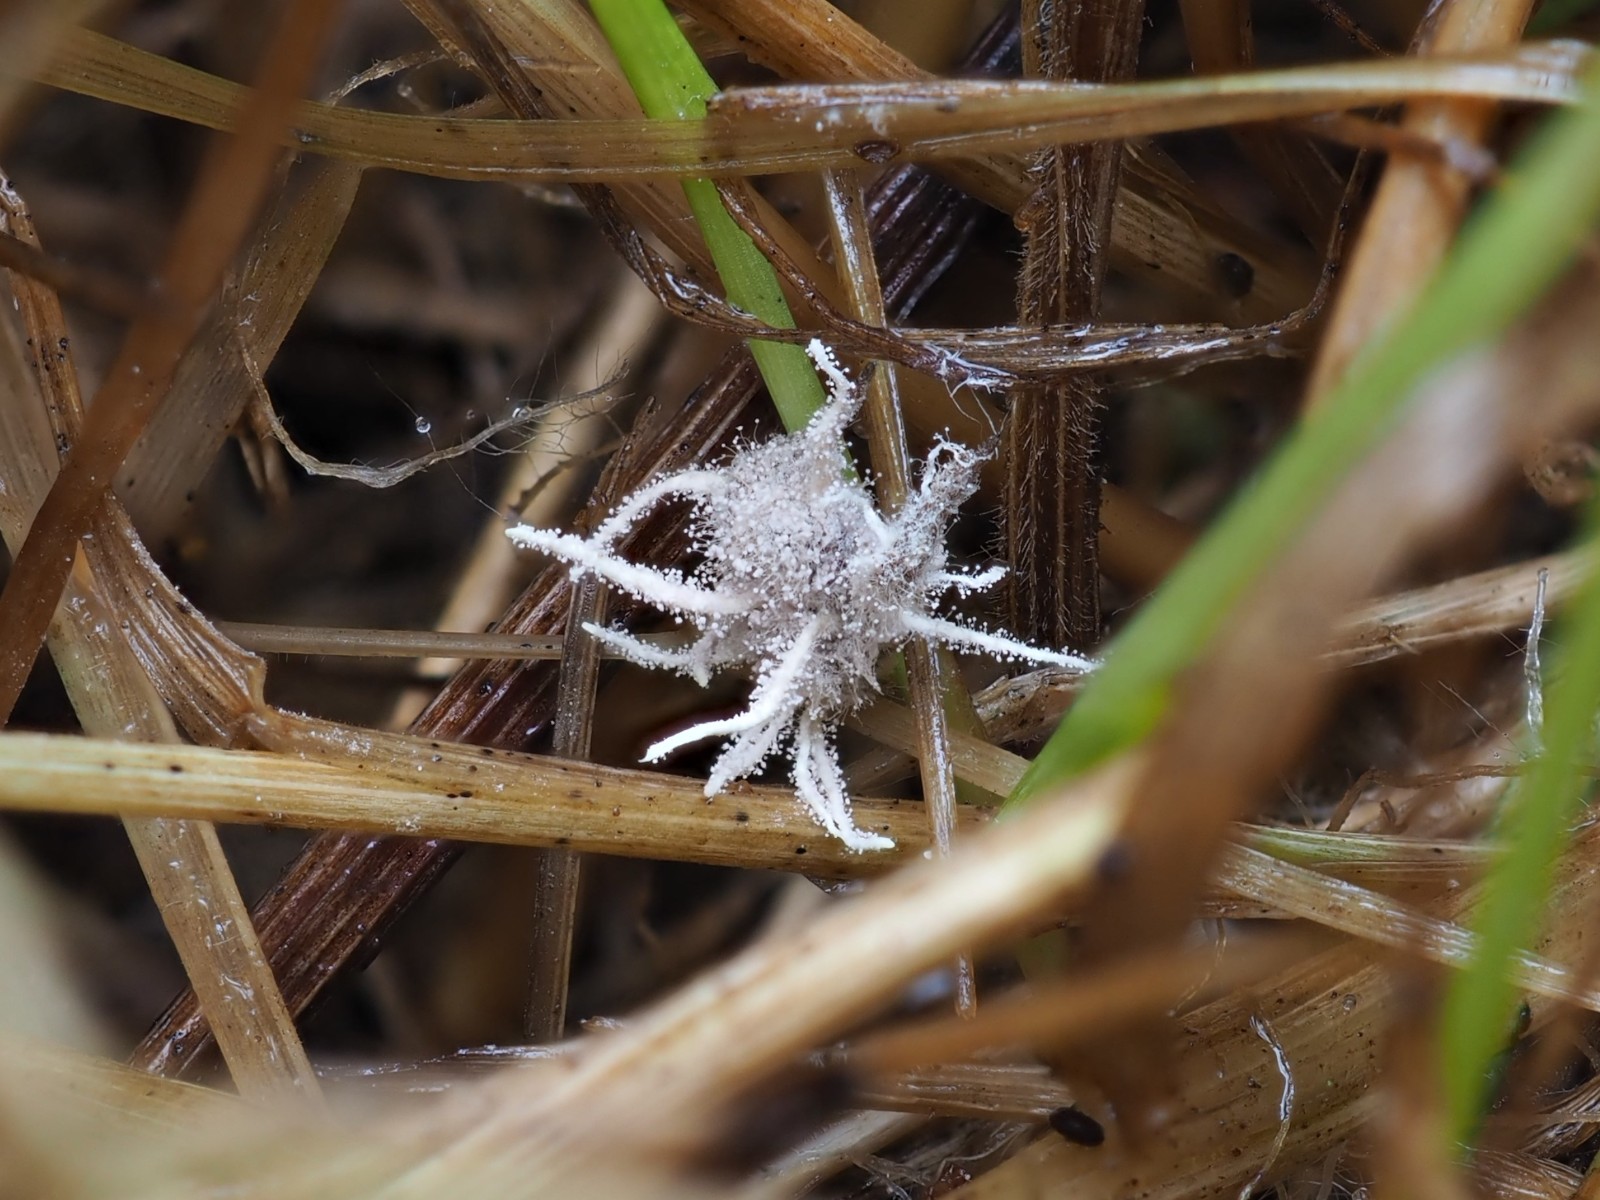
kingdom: Fungi
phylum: Ascomycota
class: Sordariomycetes
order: Hypocreales
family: Cordycipitaceae
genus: Gibellula
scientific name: Gibellula pulchra
